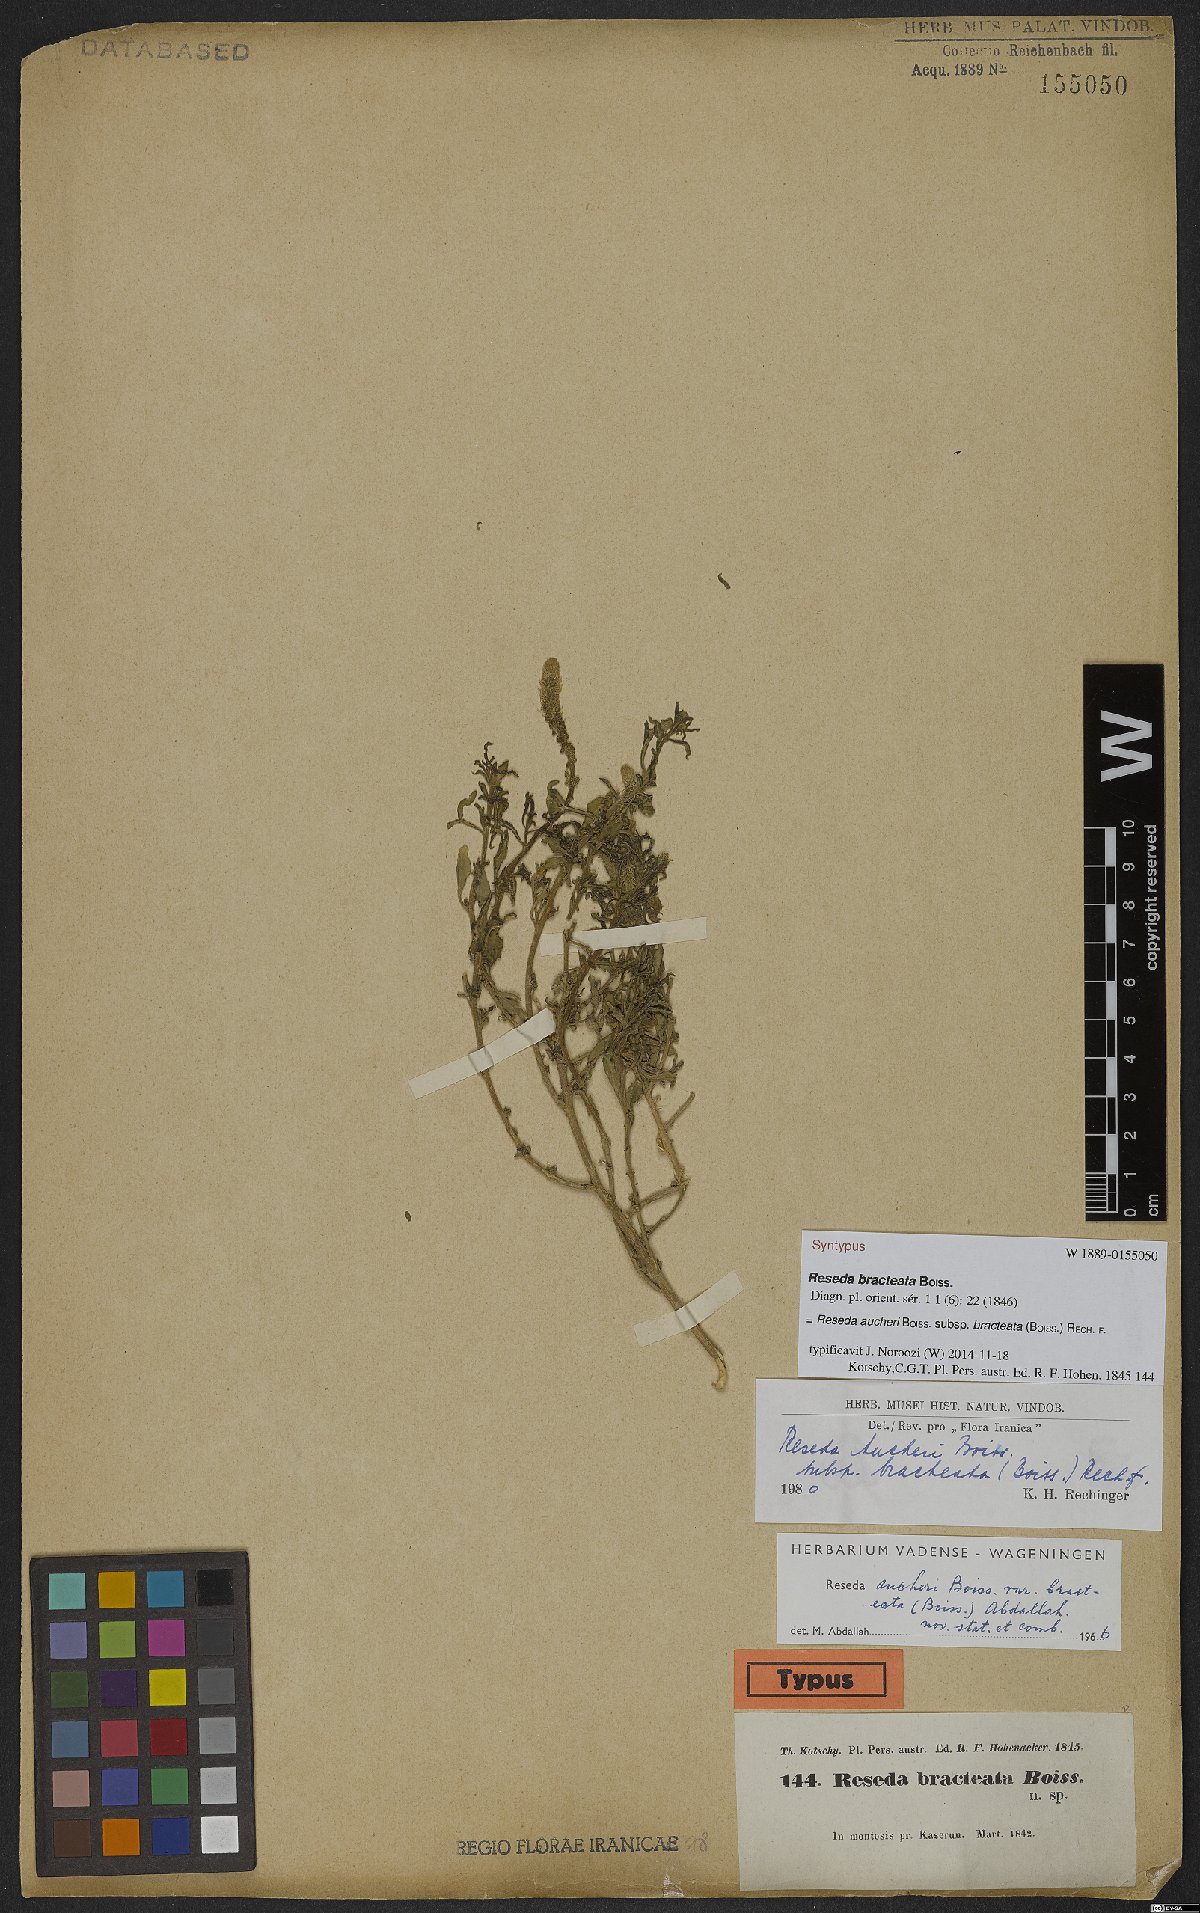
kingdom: Plantae
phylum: Tracheophyta
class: Magnoliopsida
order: Brassicales
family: Resedaceae
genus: Reseda
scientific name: Reseda aucheri
